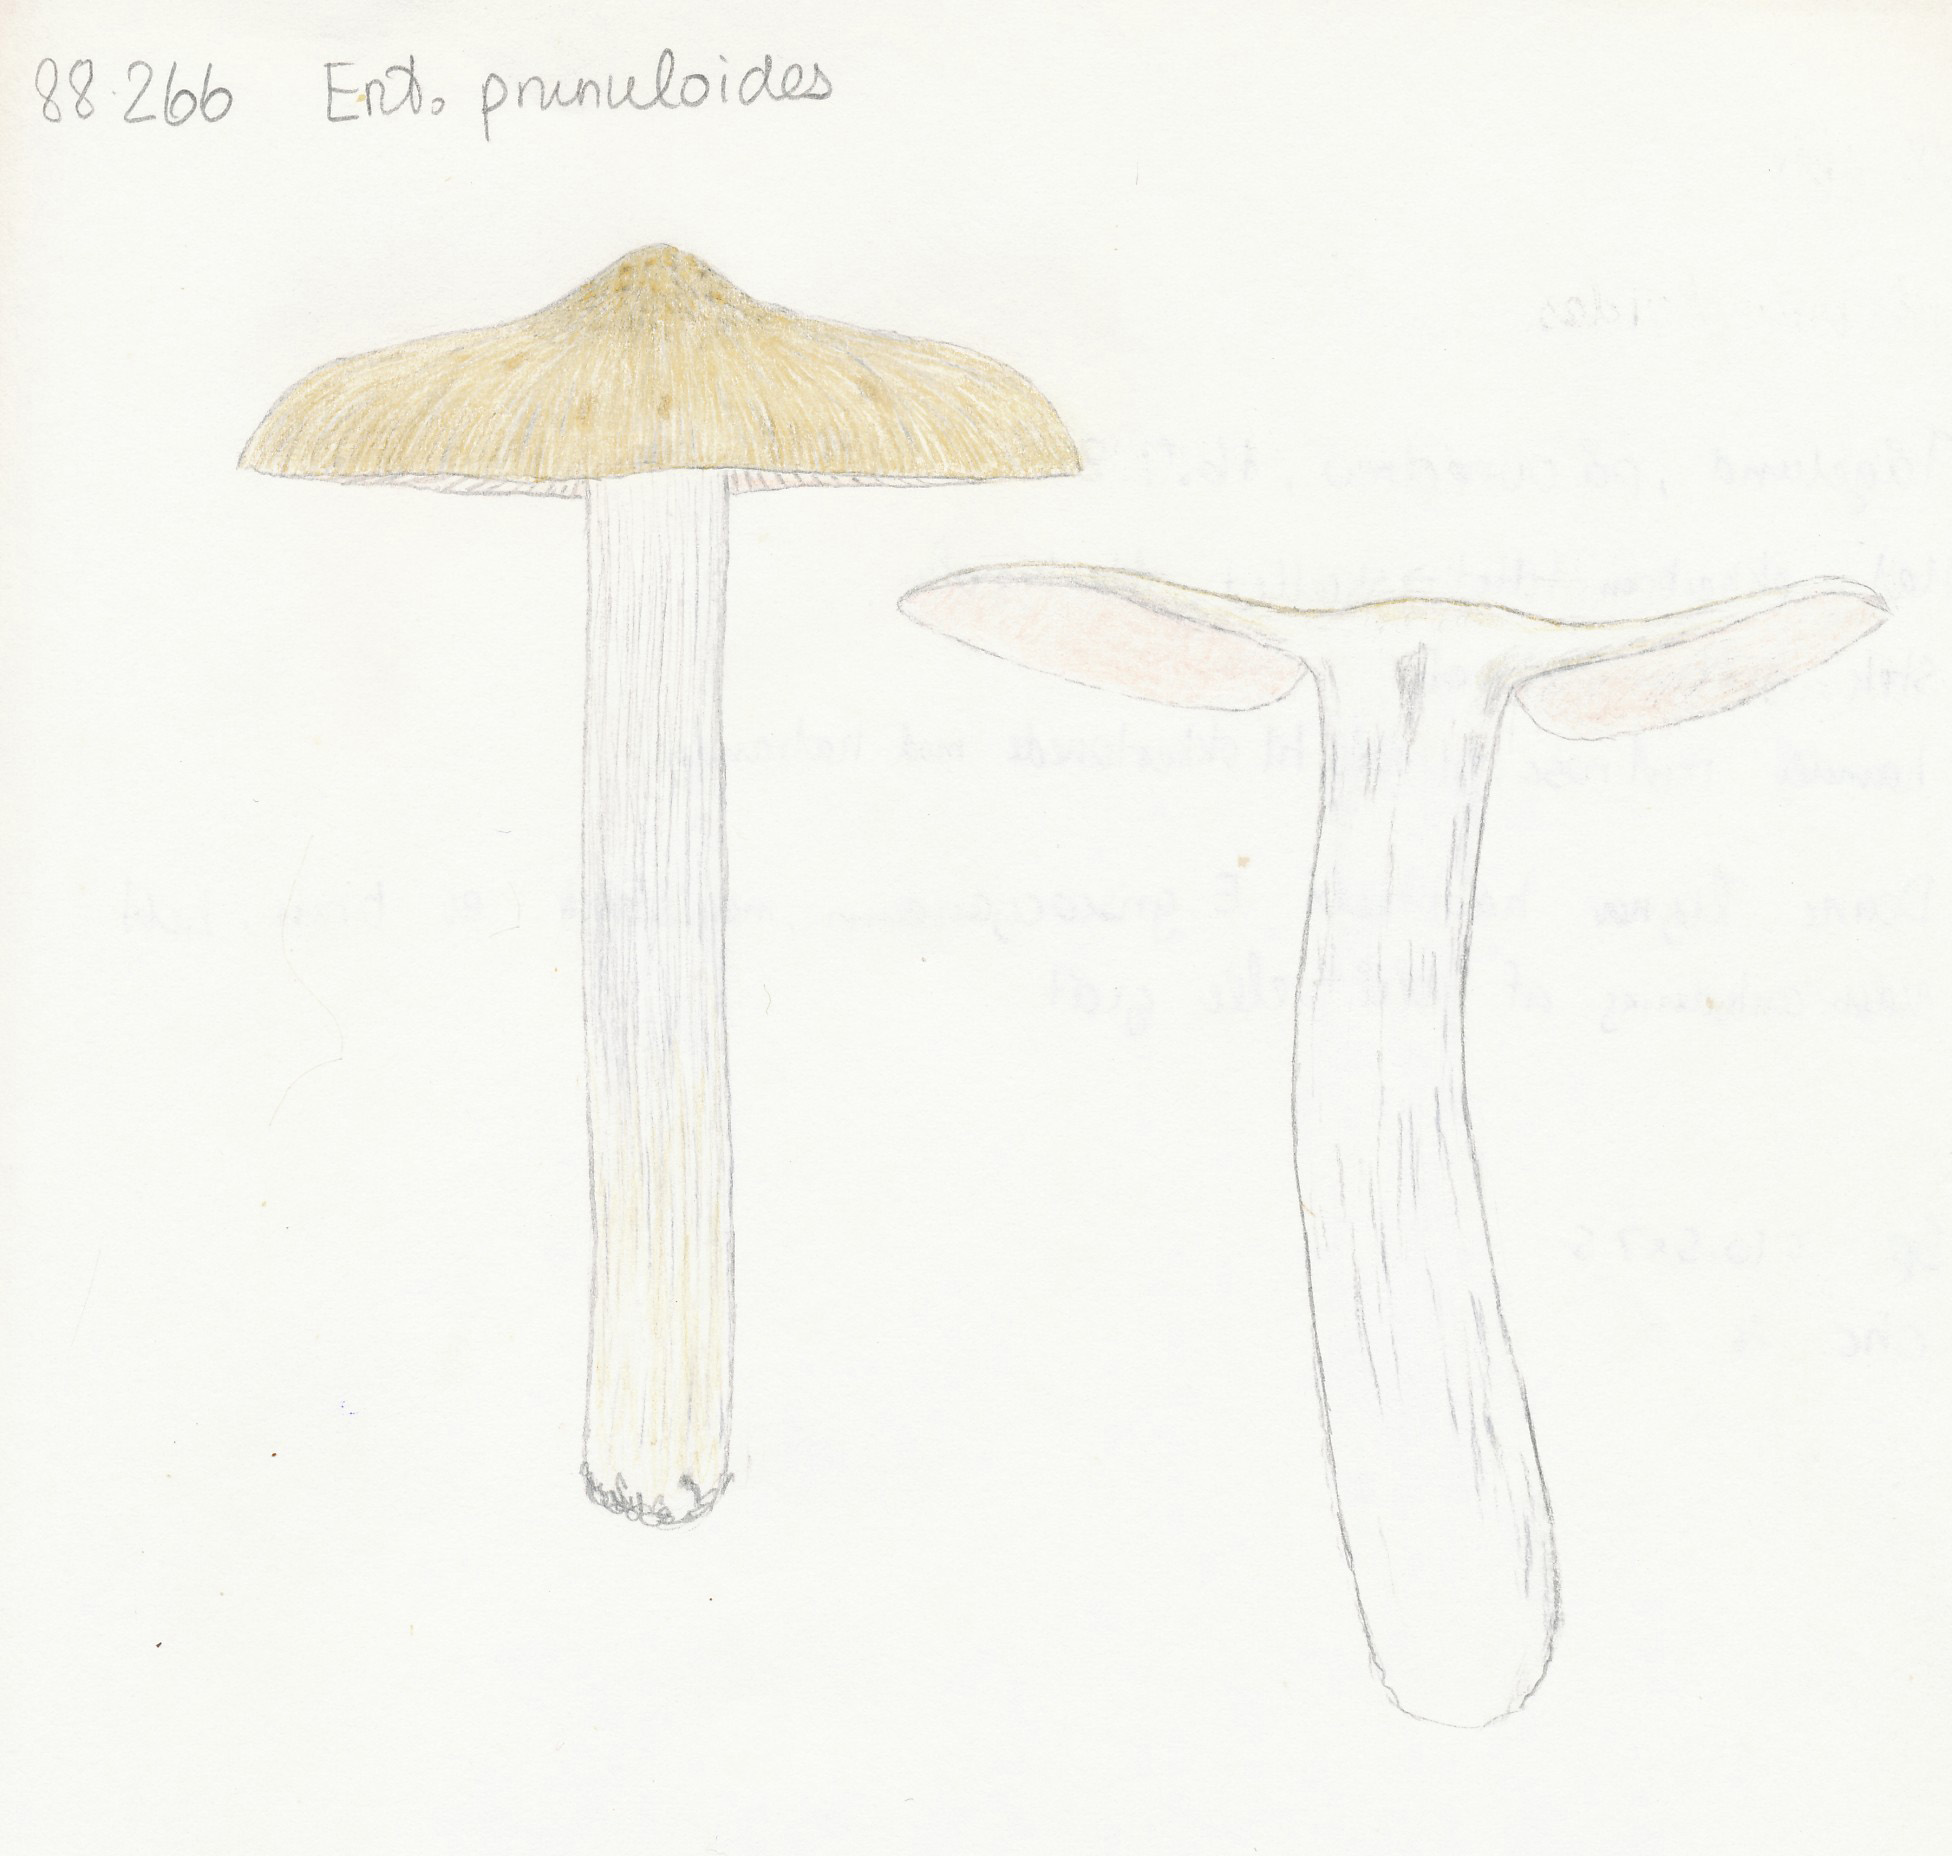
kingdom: Fungi
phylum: Basidiomycota
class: Agaricomycetes
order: Agaricales
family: Entolomataceae
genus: Entoloma
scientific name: Entoloma prunuloides
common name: mel-rødblad
